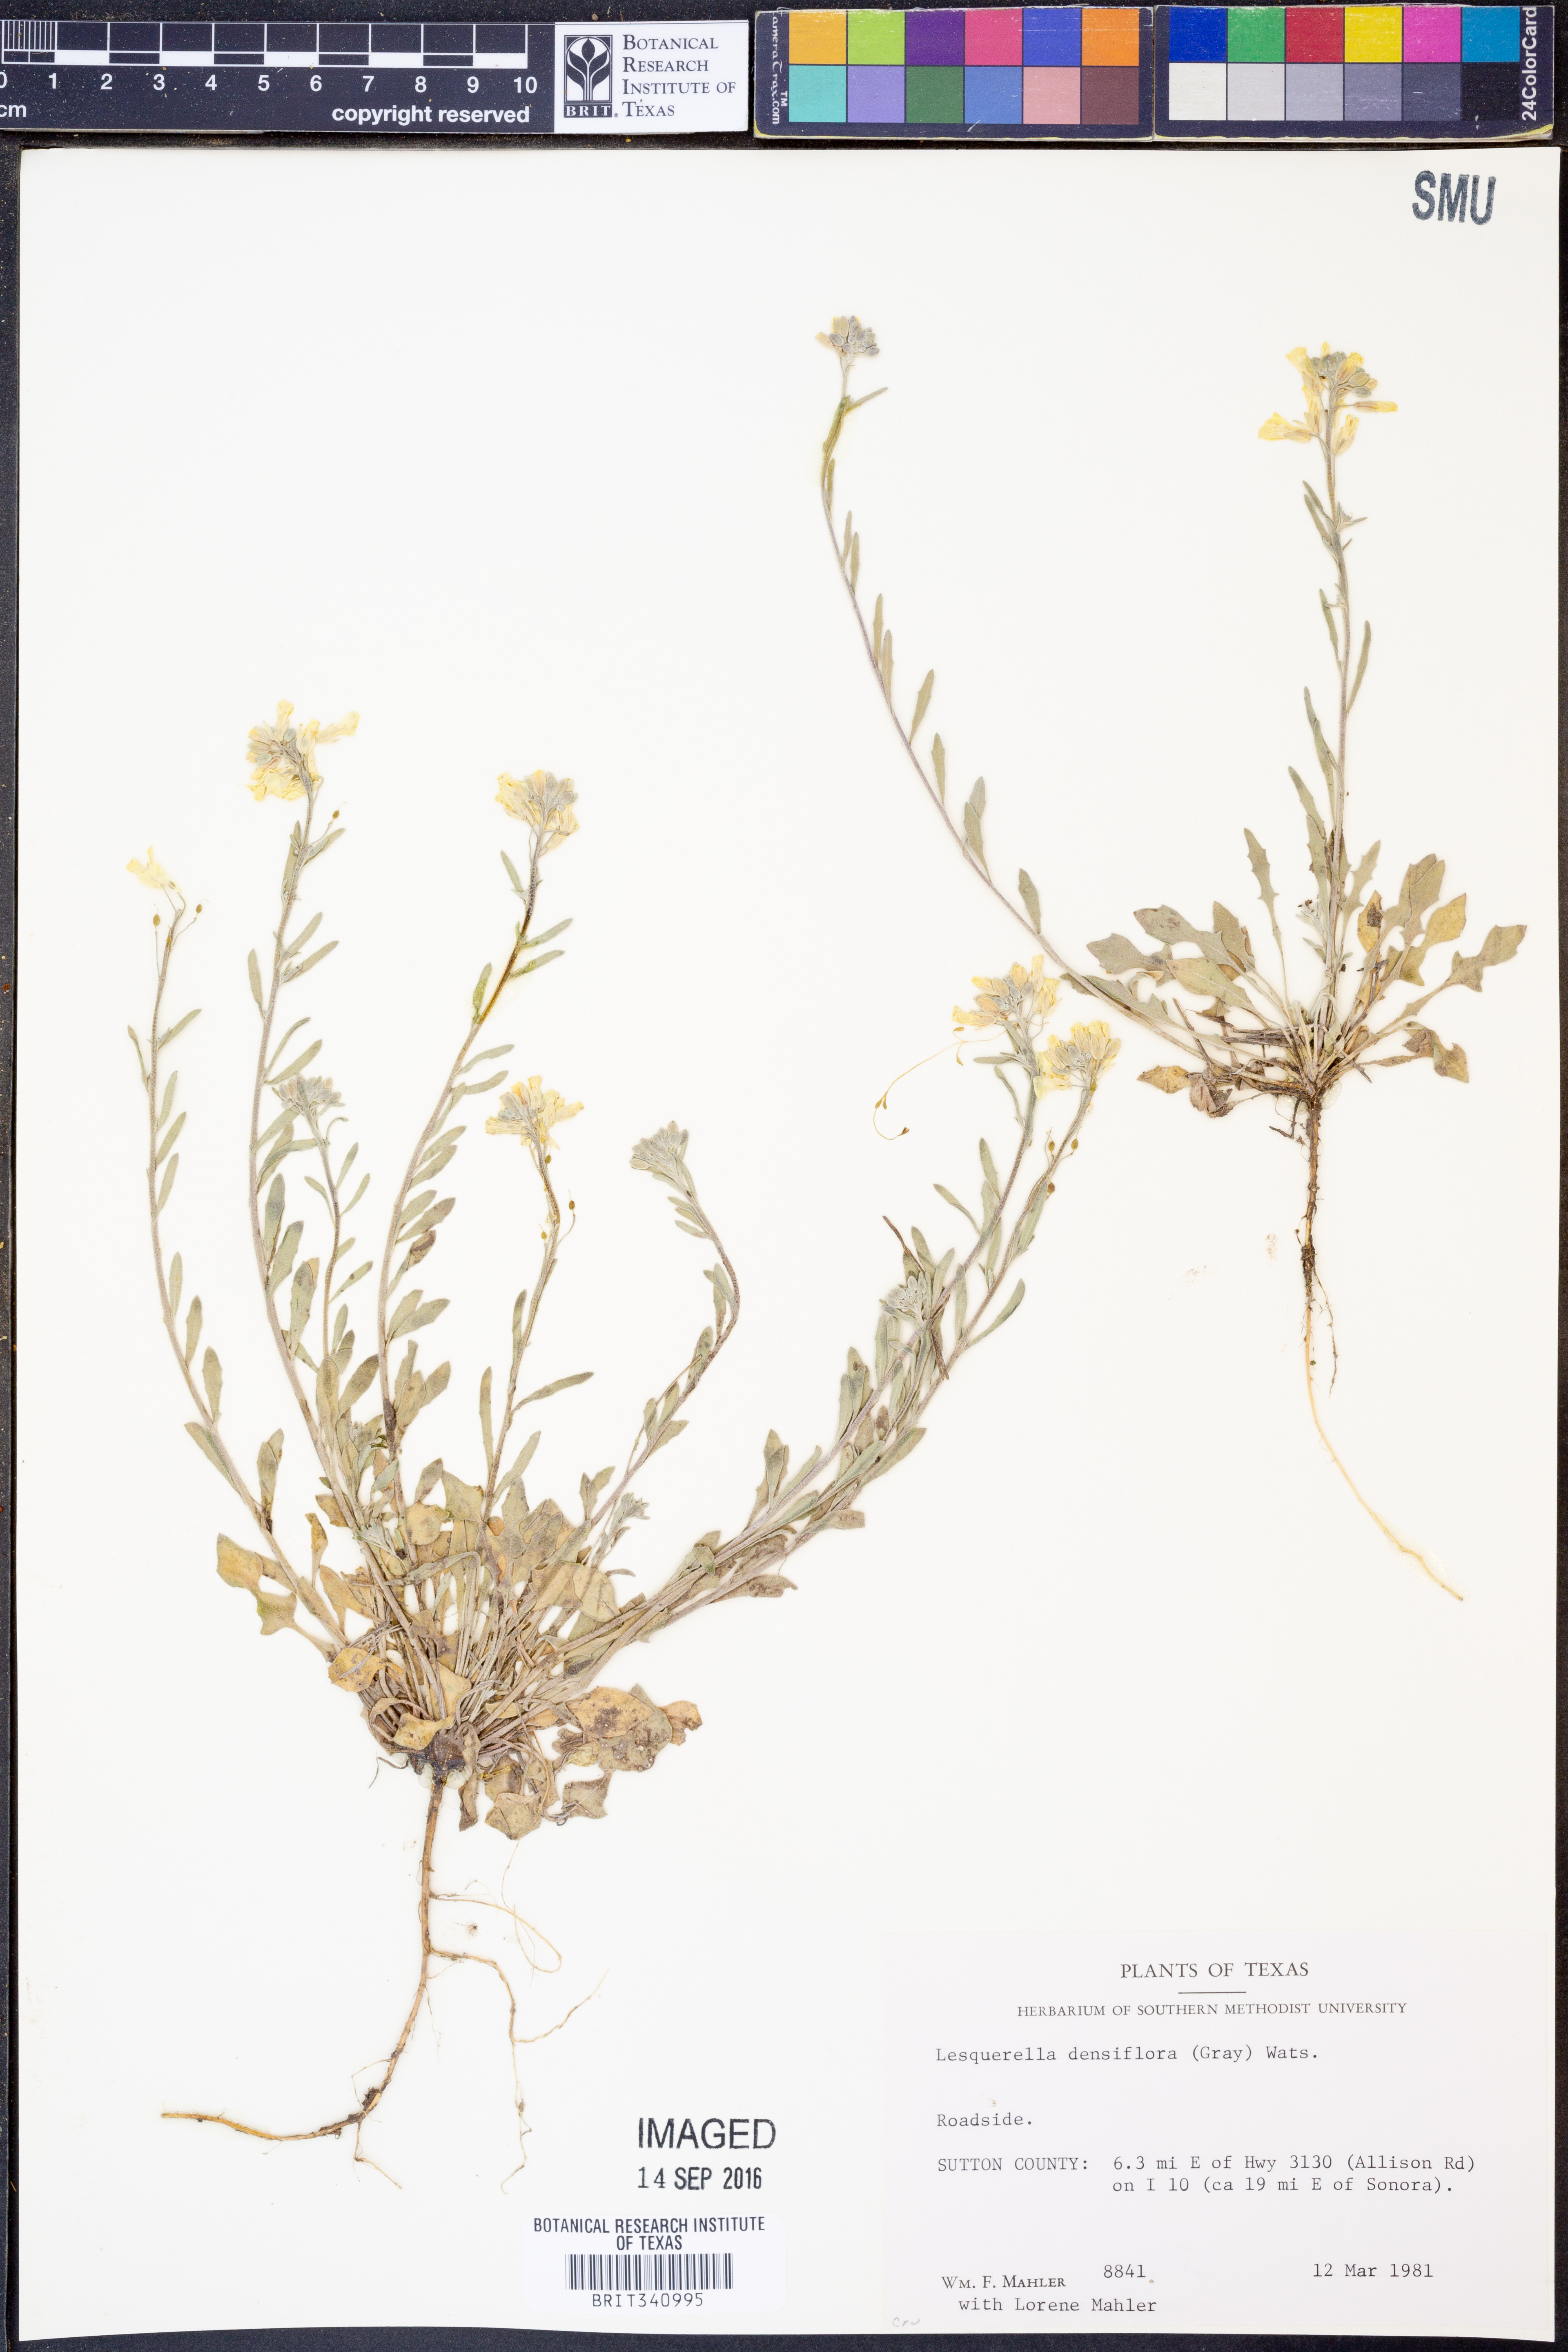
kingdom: Plantae
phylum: Tracheophyta
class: Magnoliopsida
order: Brassicales
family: Brassicaceae
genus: Physaria
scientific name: Physaria densiflora
